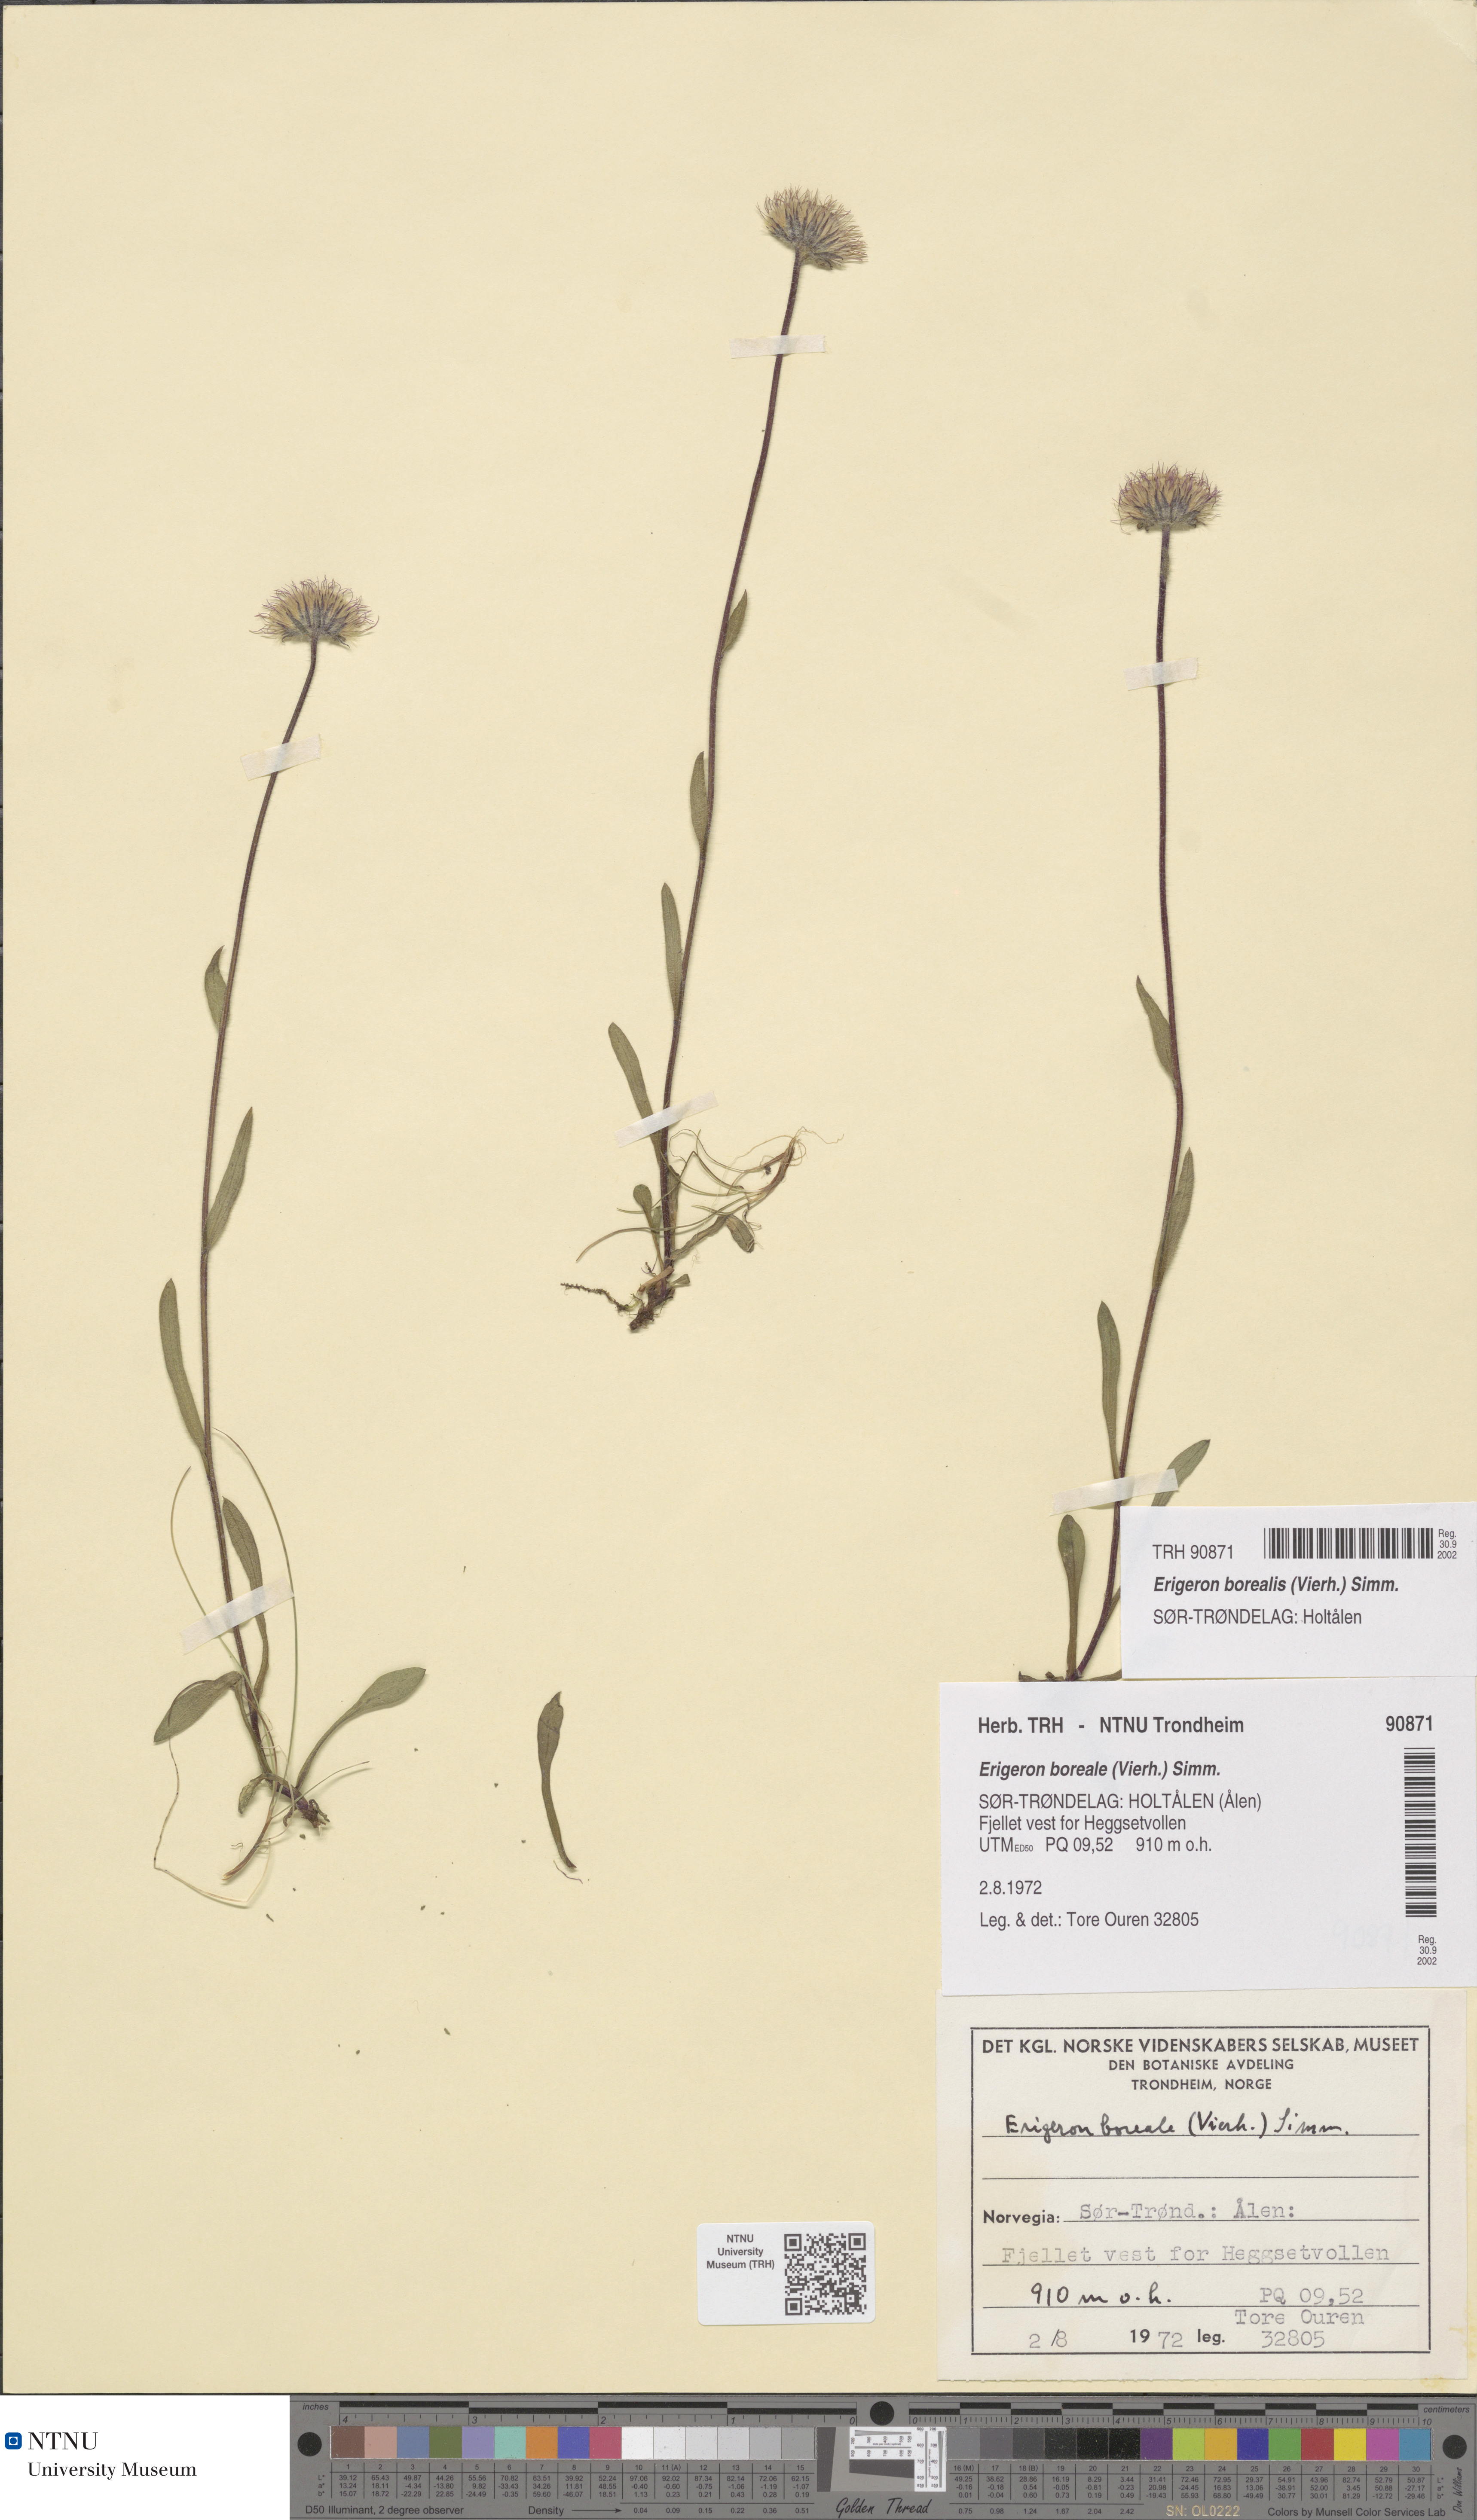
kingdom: Plantae
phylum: Tracheophyta
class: Magnoliopsida
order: Asterales
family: Asteraceae
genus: Erigeron
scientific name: Erigeron borealis
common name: Alpine fleabane
